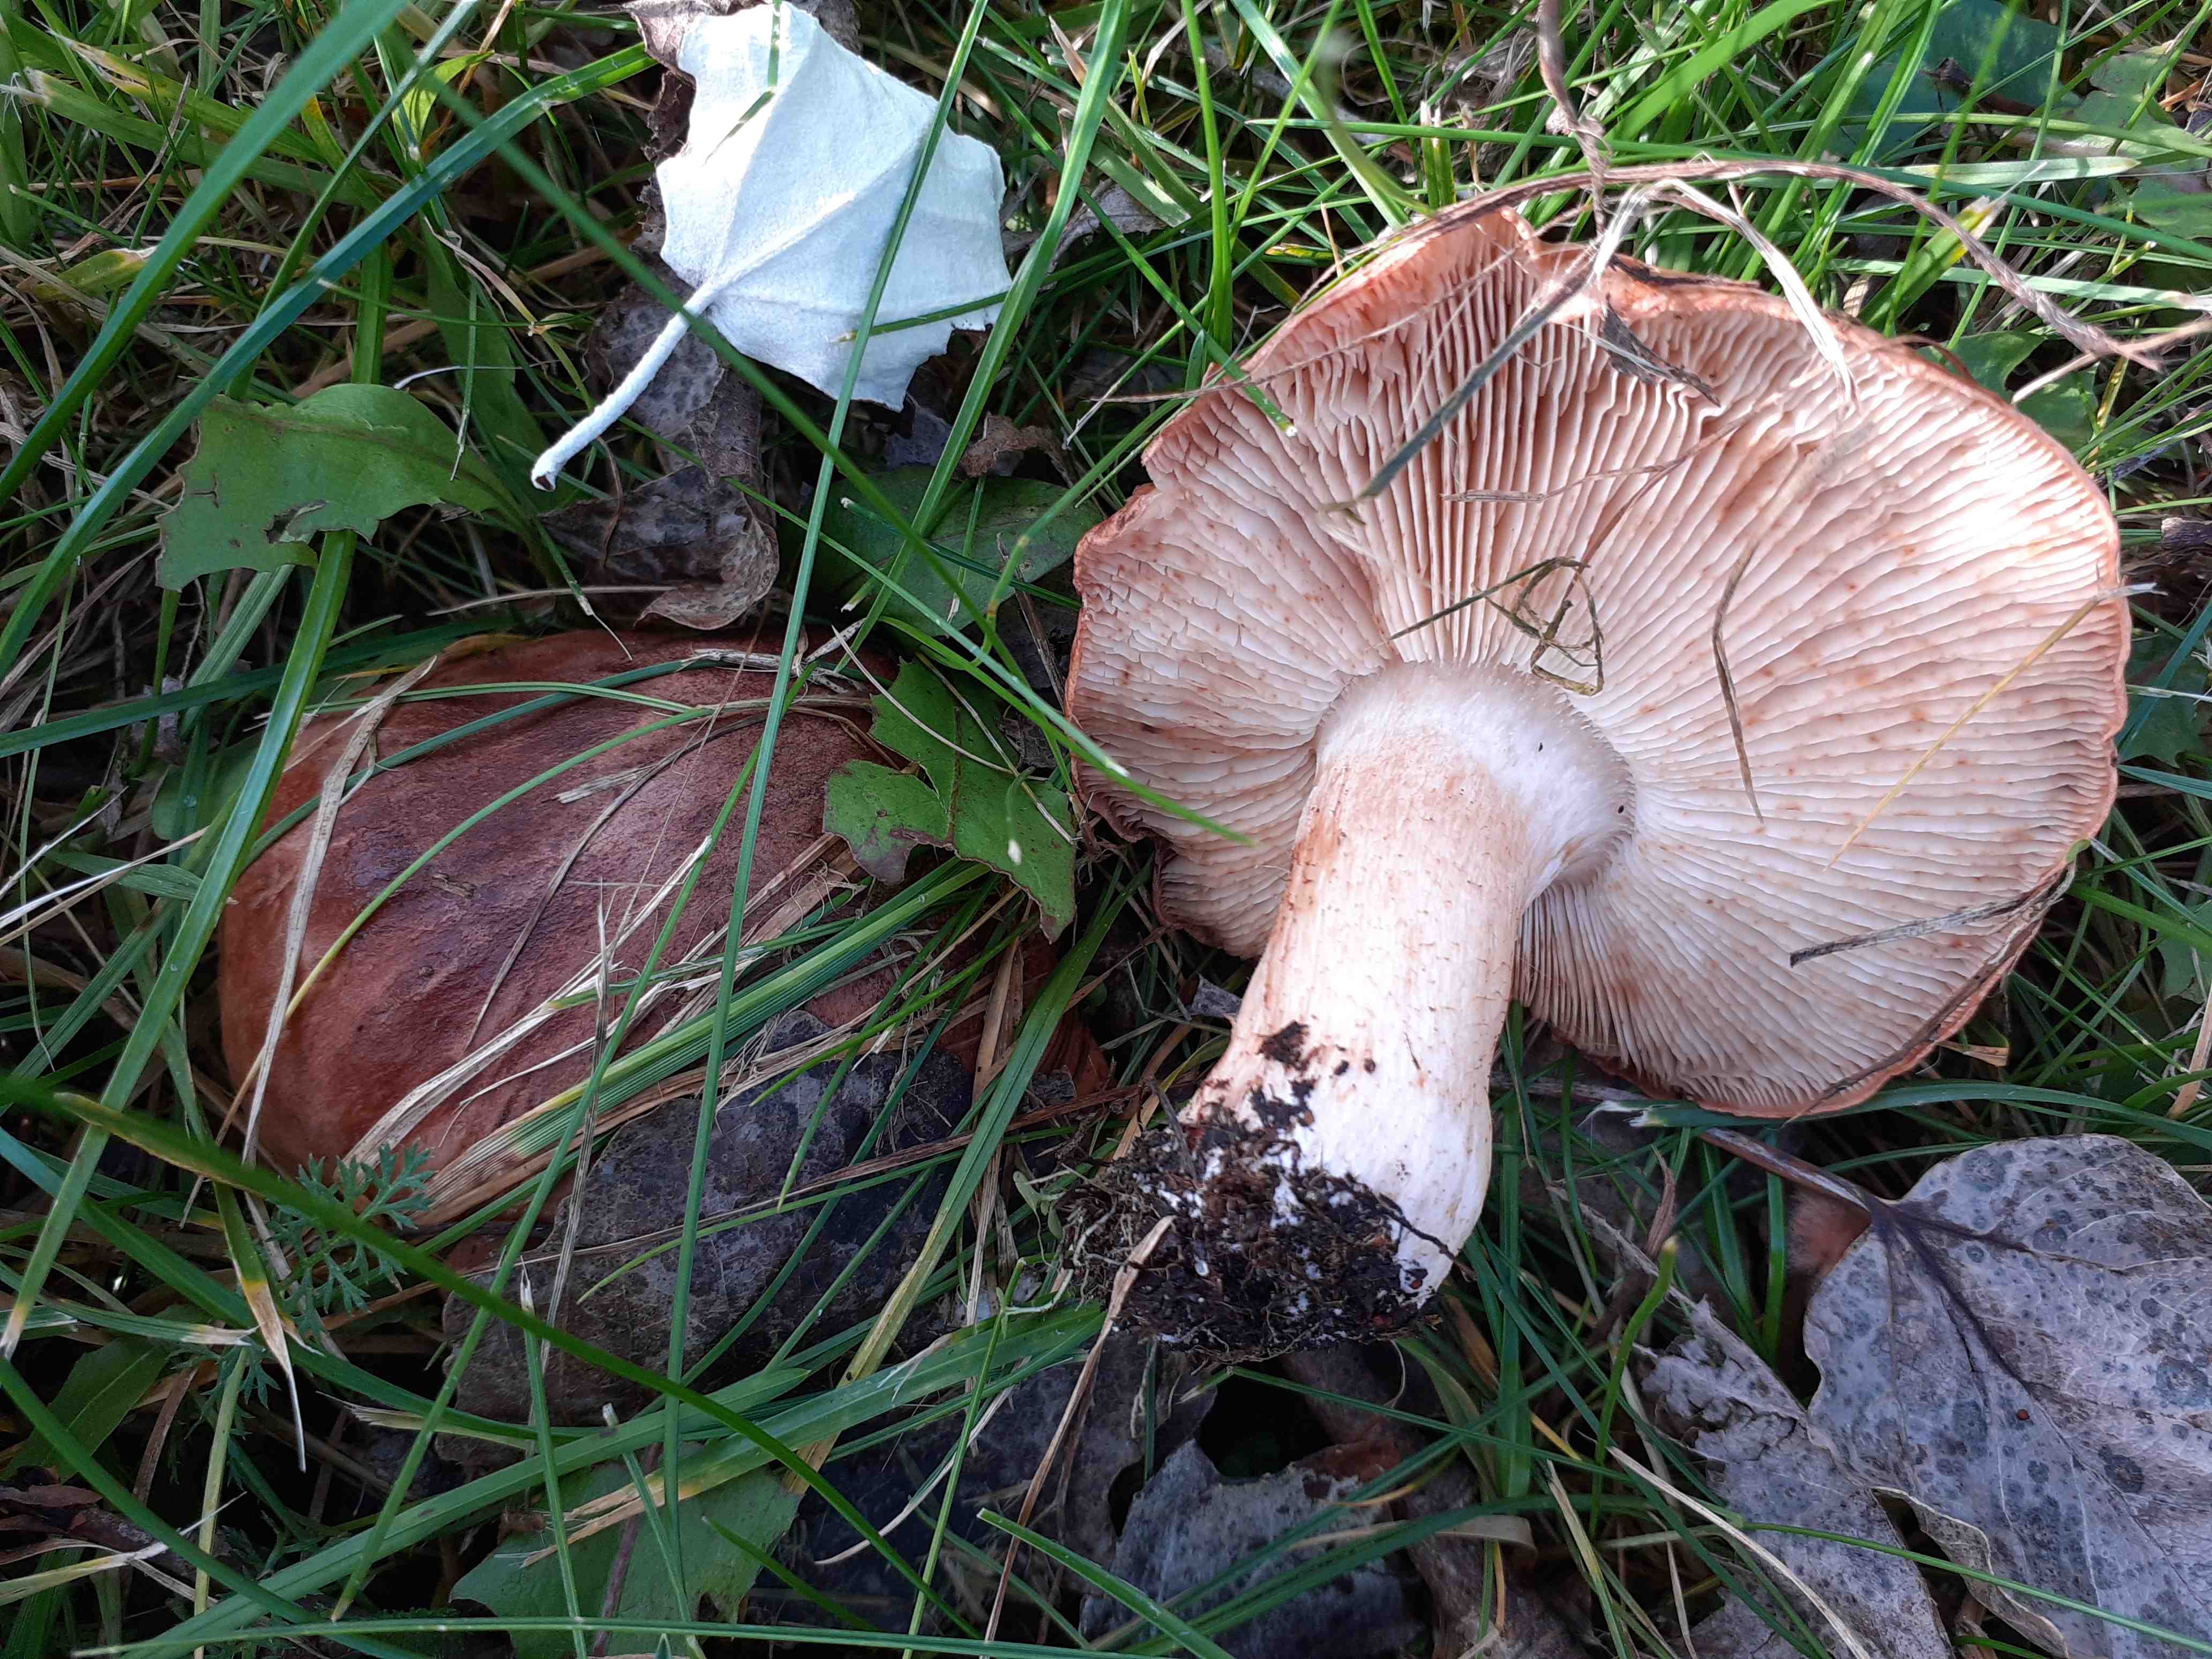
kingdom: Fungi
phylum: Basidiomycota
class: Agaricomycetes
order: Agaricales
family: Tricholomataceae
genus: Tricholoma
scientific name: Tricholoma populinum
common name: poppel-ridderhat
